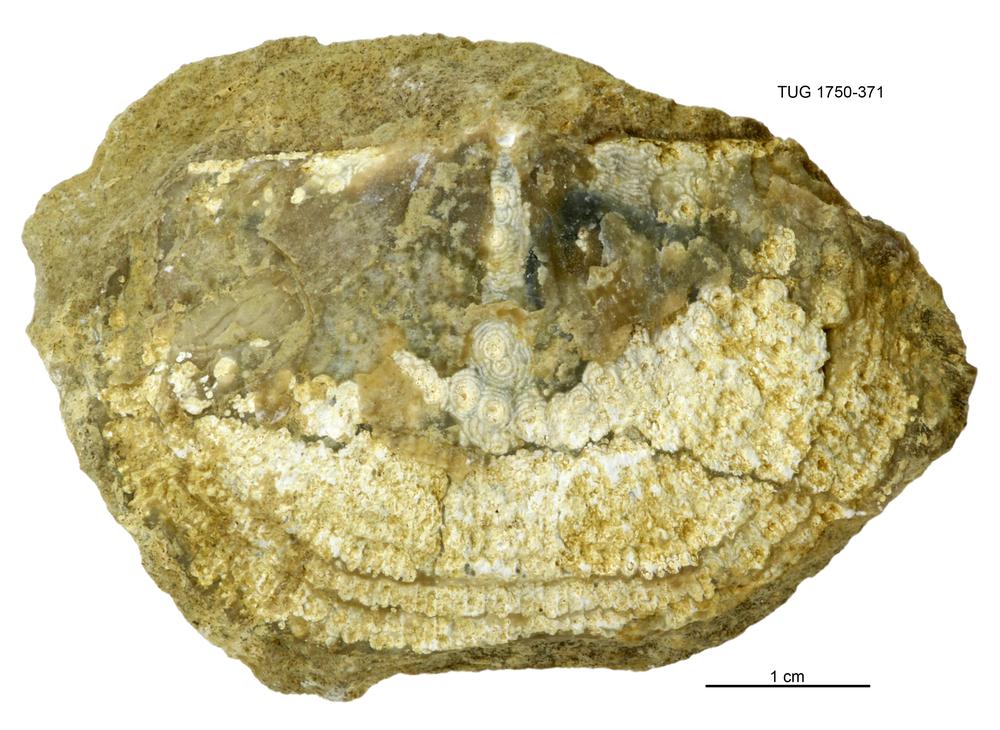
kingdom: Animalia
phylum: Brachiopoda
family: Gonambonitidae
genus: Estlandia
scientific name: Estlandia pyron
